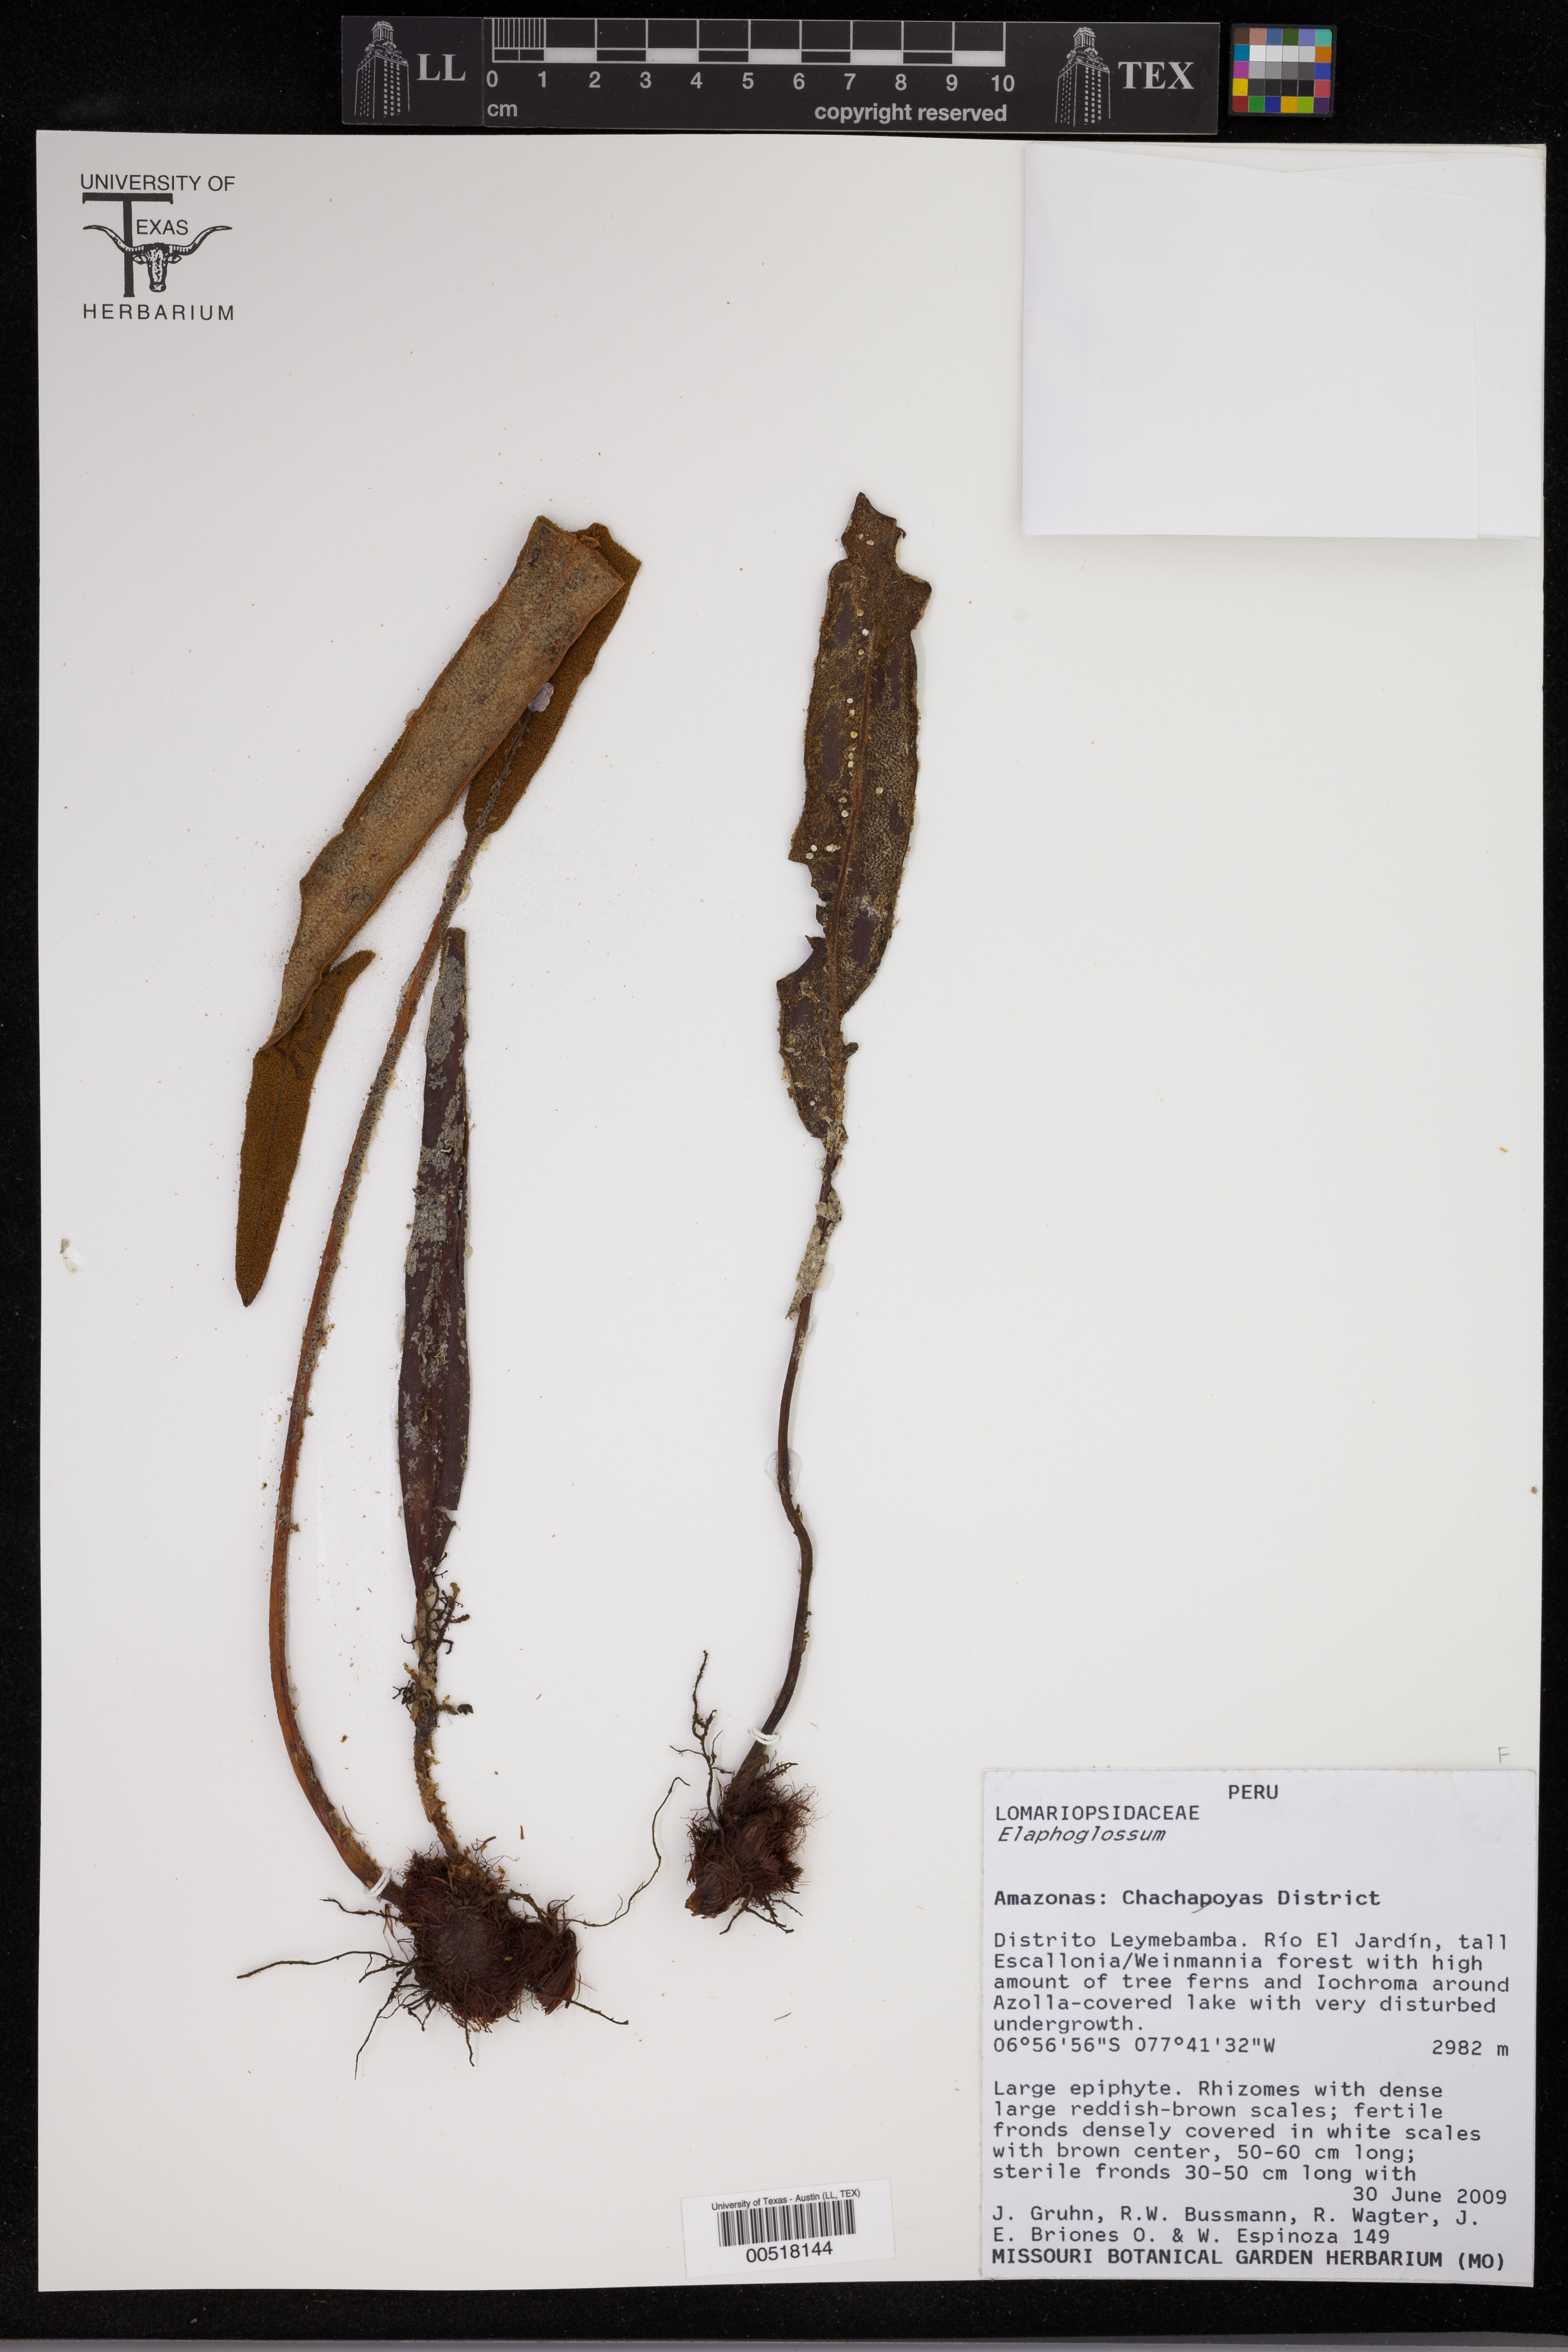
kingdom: Plantae
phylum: Tracheophyta
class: Polypodiopsida
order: Polypodiales
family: Dryopteridaceae
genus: Elaphoglossum
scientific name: Elaphoglossum
